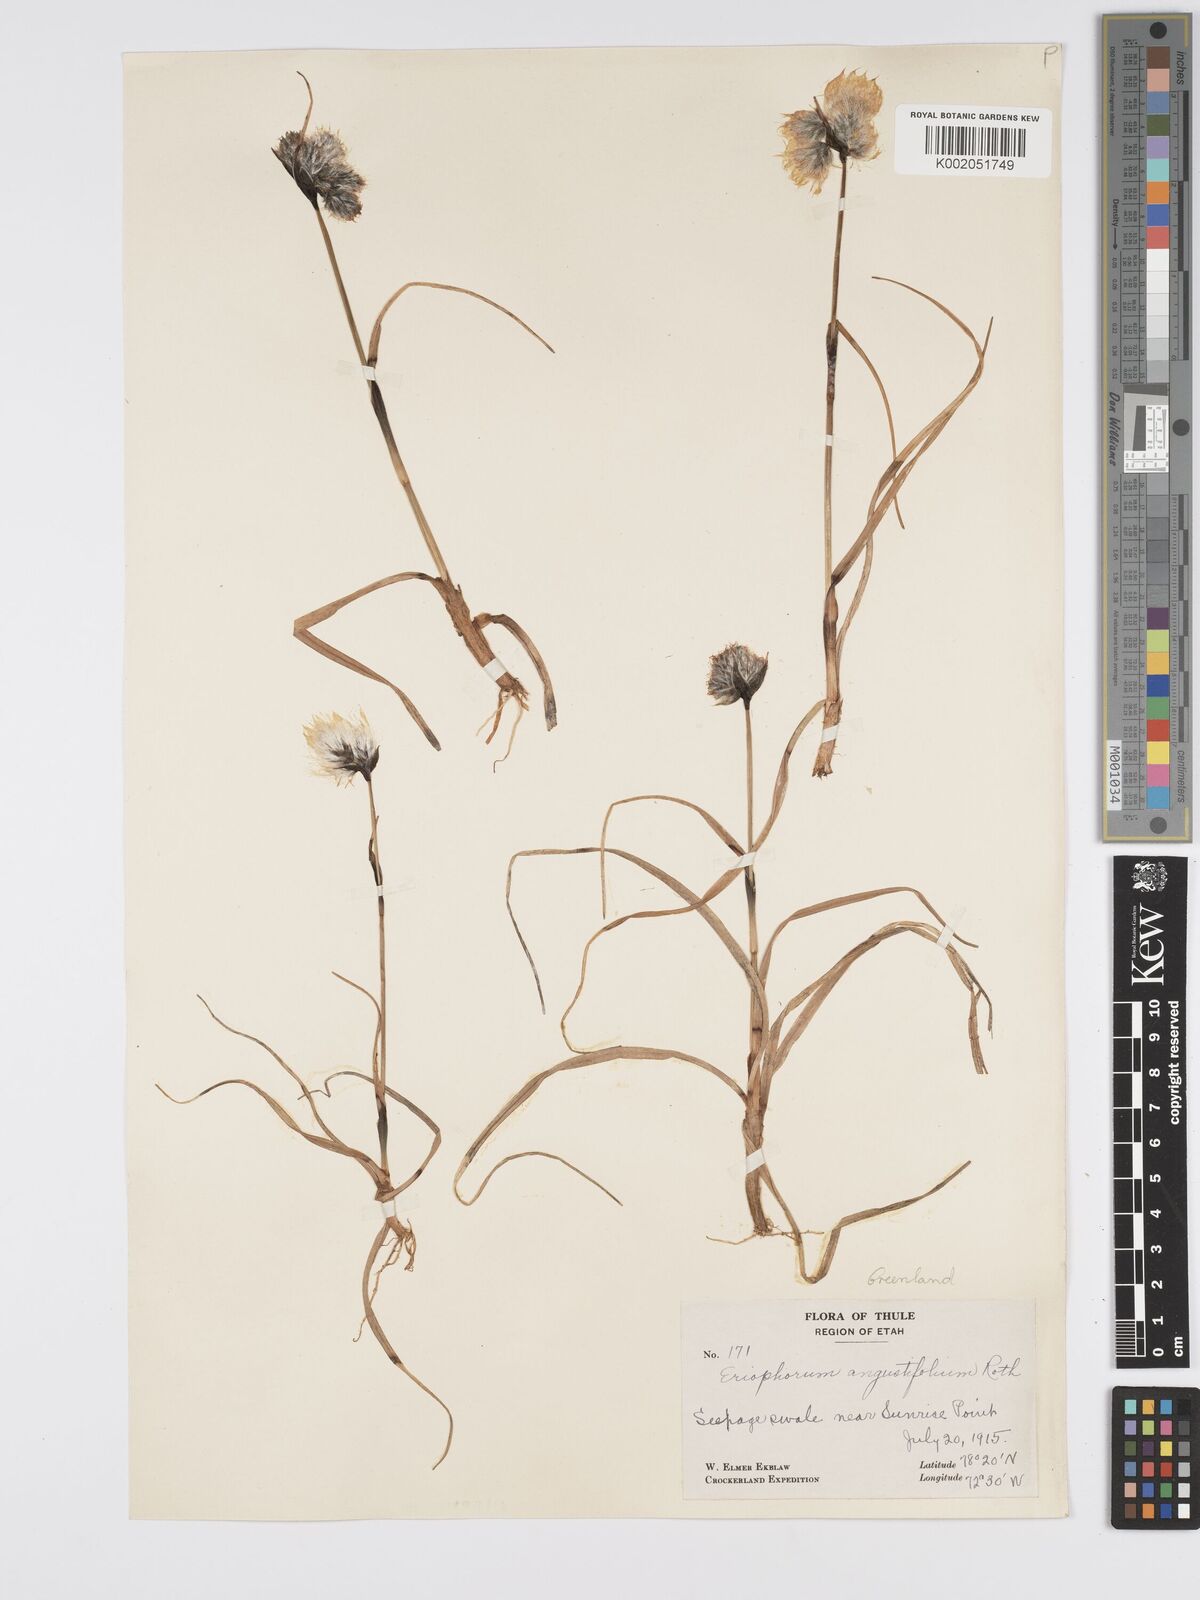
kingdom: Plantae
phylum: Tracheophyta
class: Liliopsida
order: Poales
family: Cyperaceae
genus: Eriophorum
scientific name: Eriophorum angustifolium
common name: Common cottongrass
